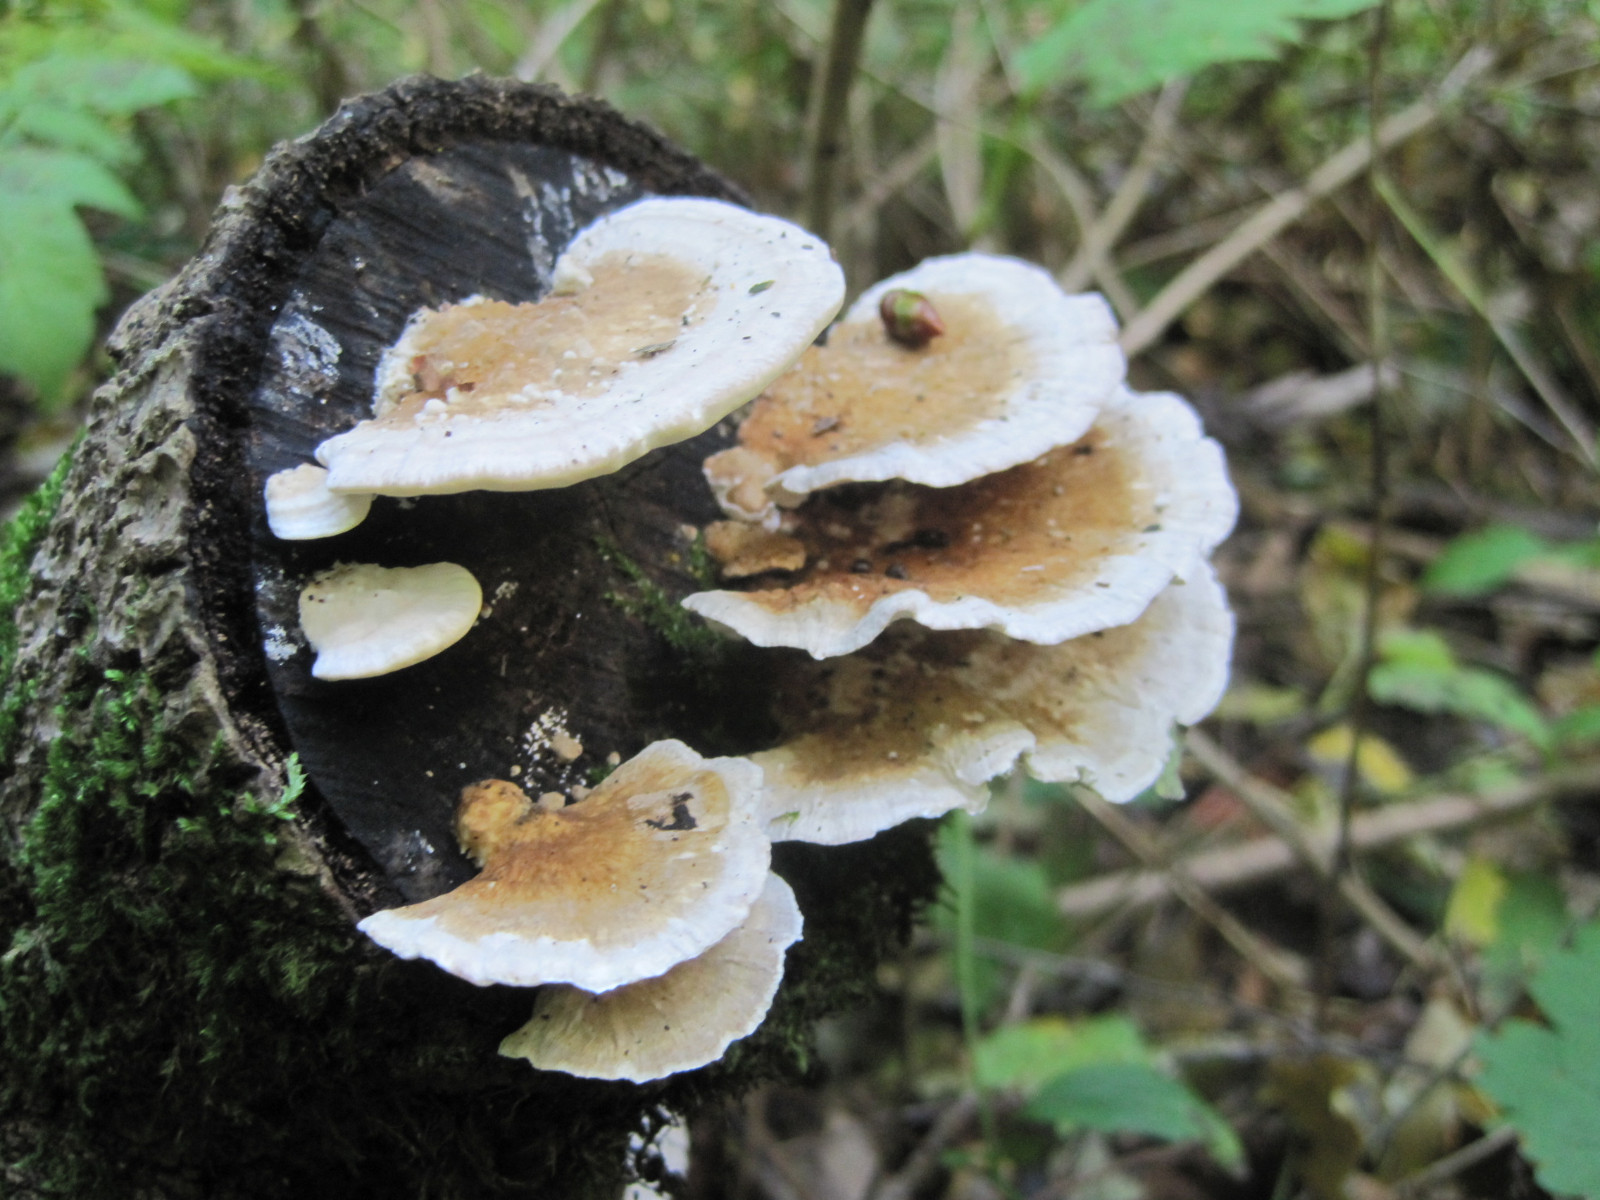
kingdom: Fungi
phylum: Basidiomycota
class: Agaricomycetes
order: Polyporales
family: Polyporaceae
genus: Trametes
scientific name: Trametes ochracea
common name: bæltet læderporesvamp
